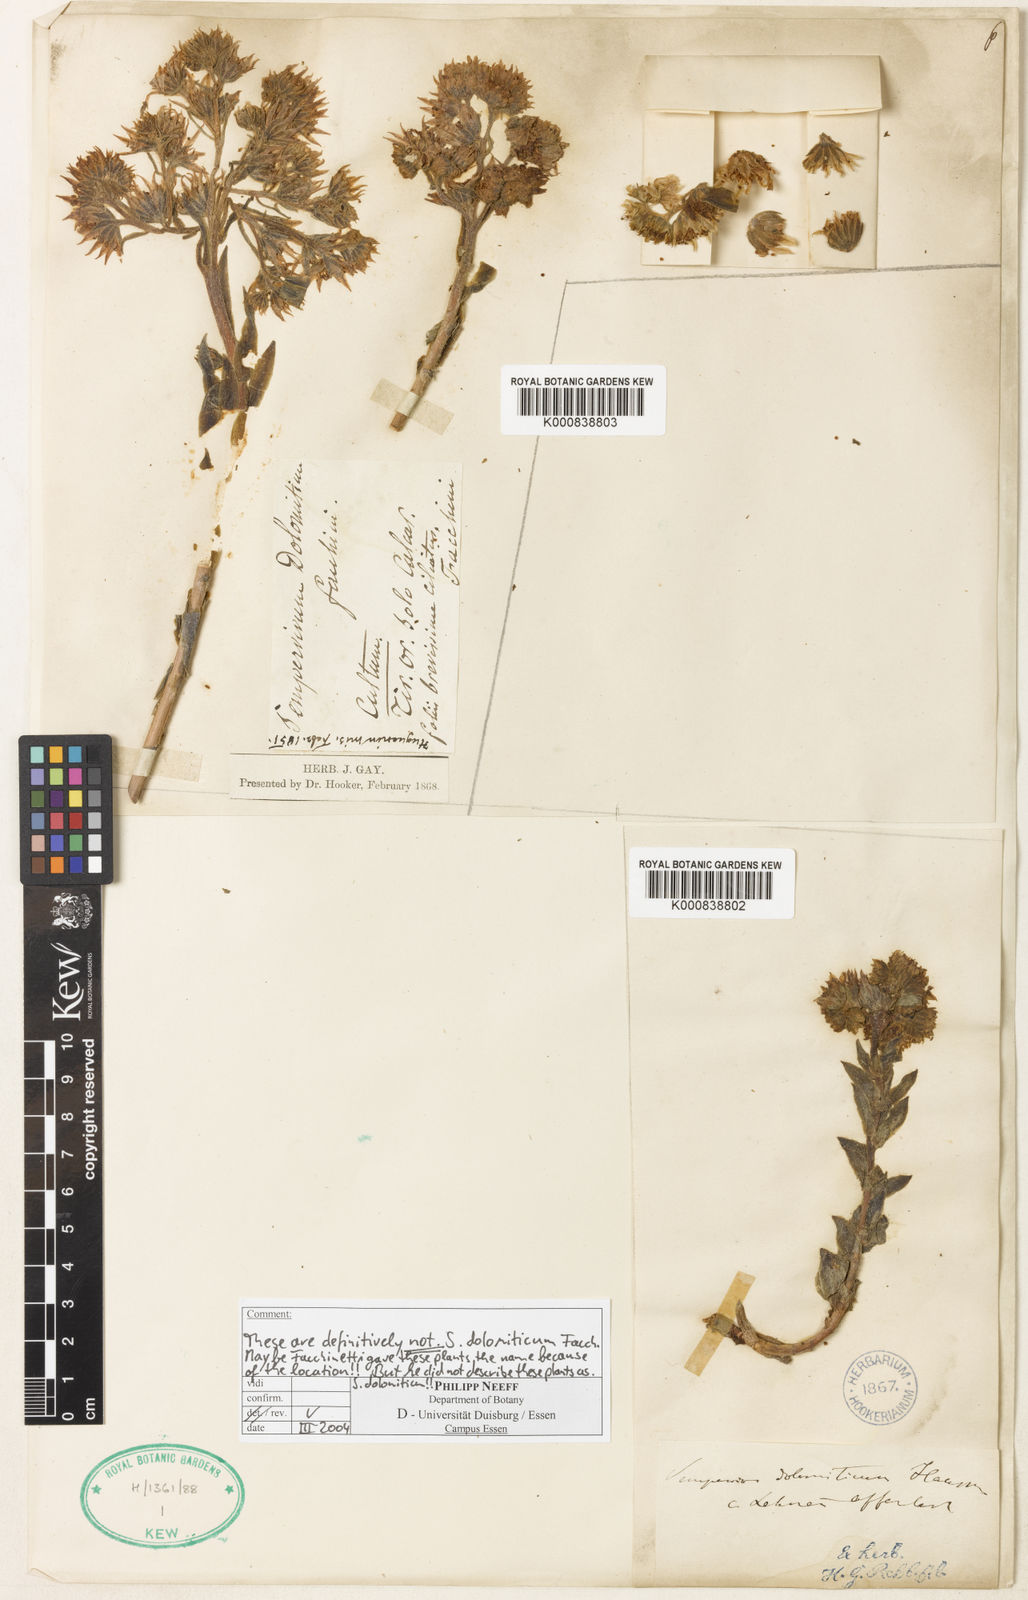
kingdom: Plantae
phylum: Tracheophyta
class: Magnoliopsida
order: Saxifragales
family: Crassulaceae
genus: Sempervivum
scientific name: Sempervivum
